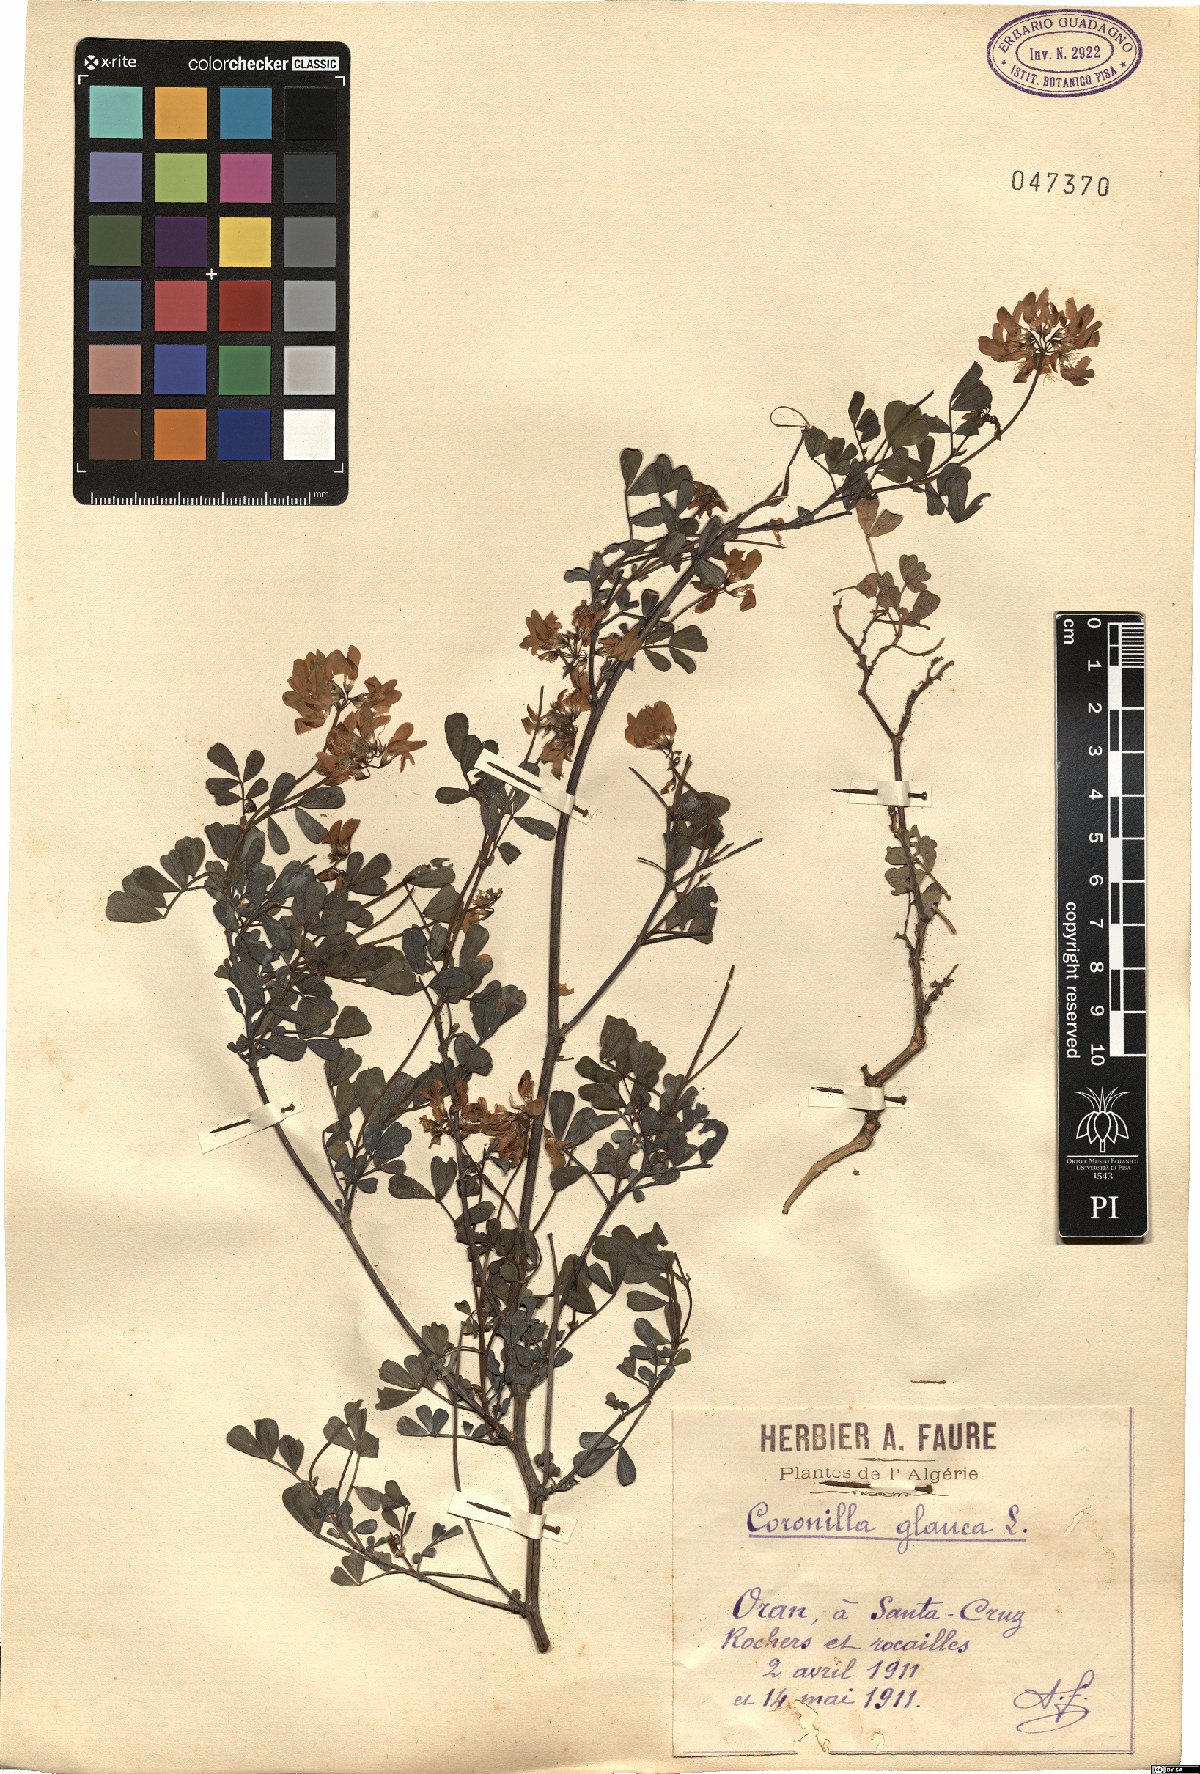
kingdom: Plantae
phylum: Tracheophyta
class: Magnoliopsida
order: Fabales
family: Fabaceae
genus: Coronilla
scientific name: Coronilla valentina
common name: Shrubby scorpion-vetch
